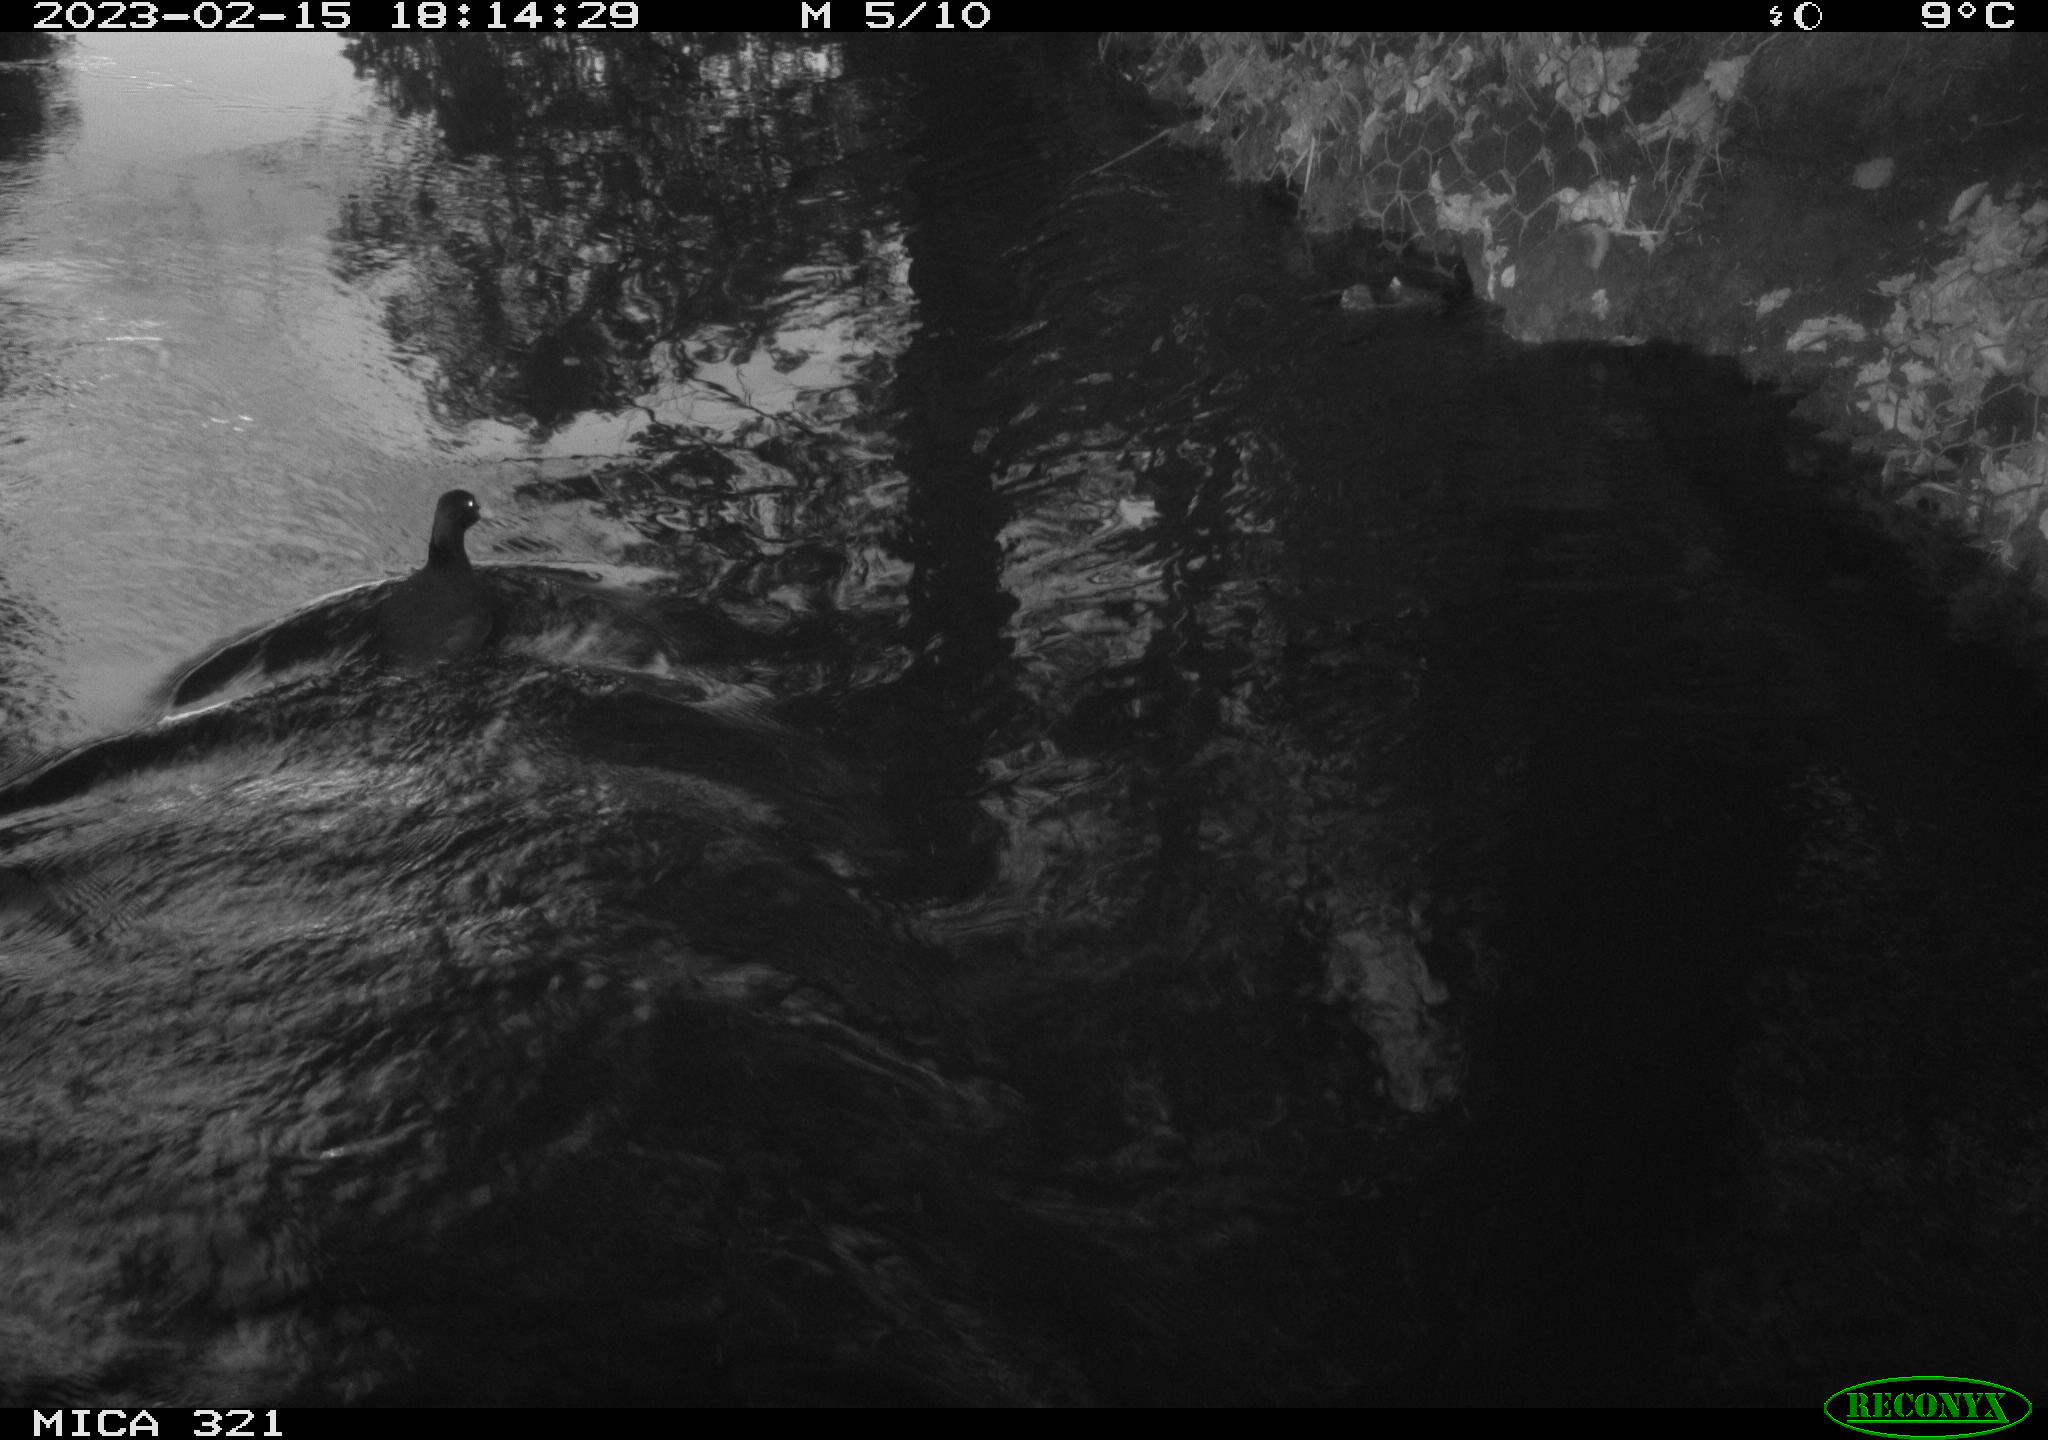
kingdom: Animalia
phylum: Chordata
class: Aves
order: Gruiformes
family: Rallidae
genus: Fulica
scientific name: Fulica atra
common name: Eurasian coot
